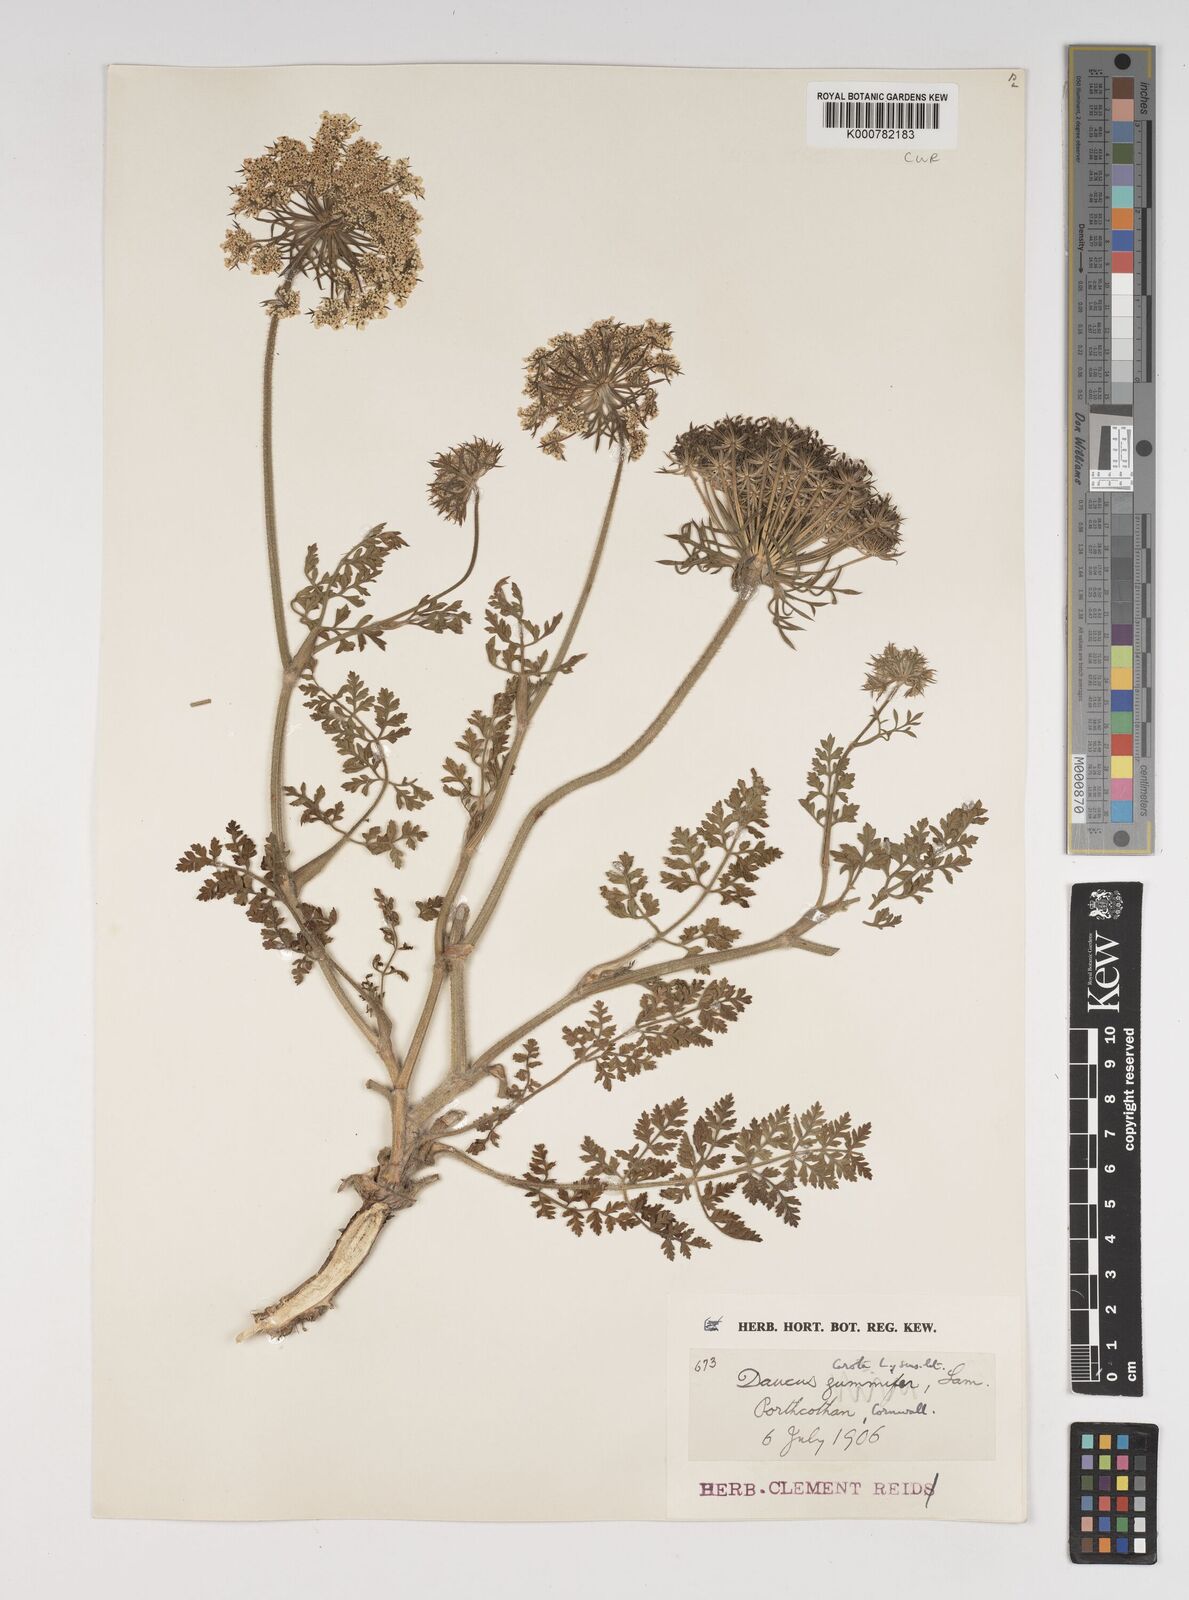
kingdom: Plantae
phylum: Tracheophyta
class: Magnoliopsida
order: Apiales
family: Apiaceae
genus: Daucus
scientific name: Daucus carota
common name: Wild carrot
